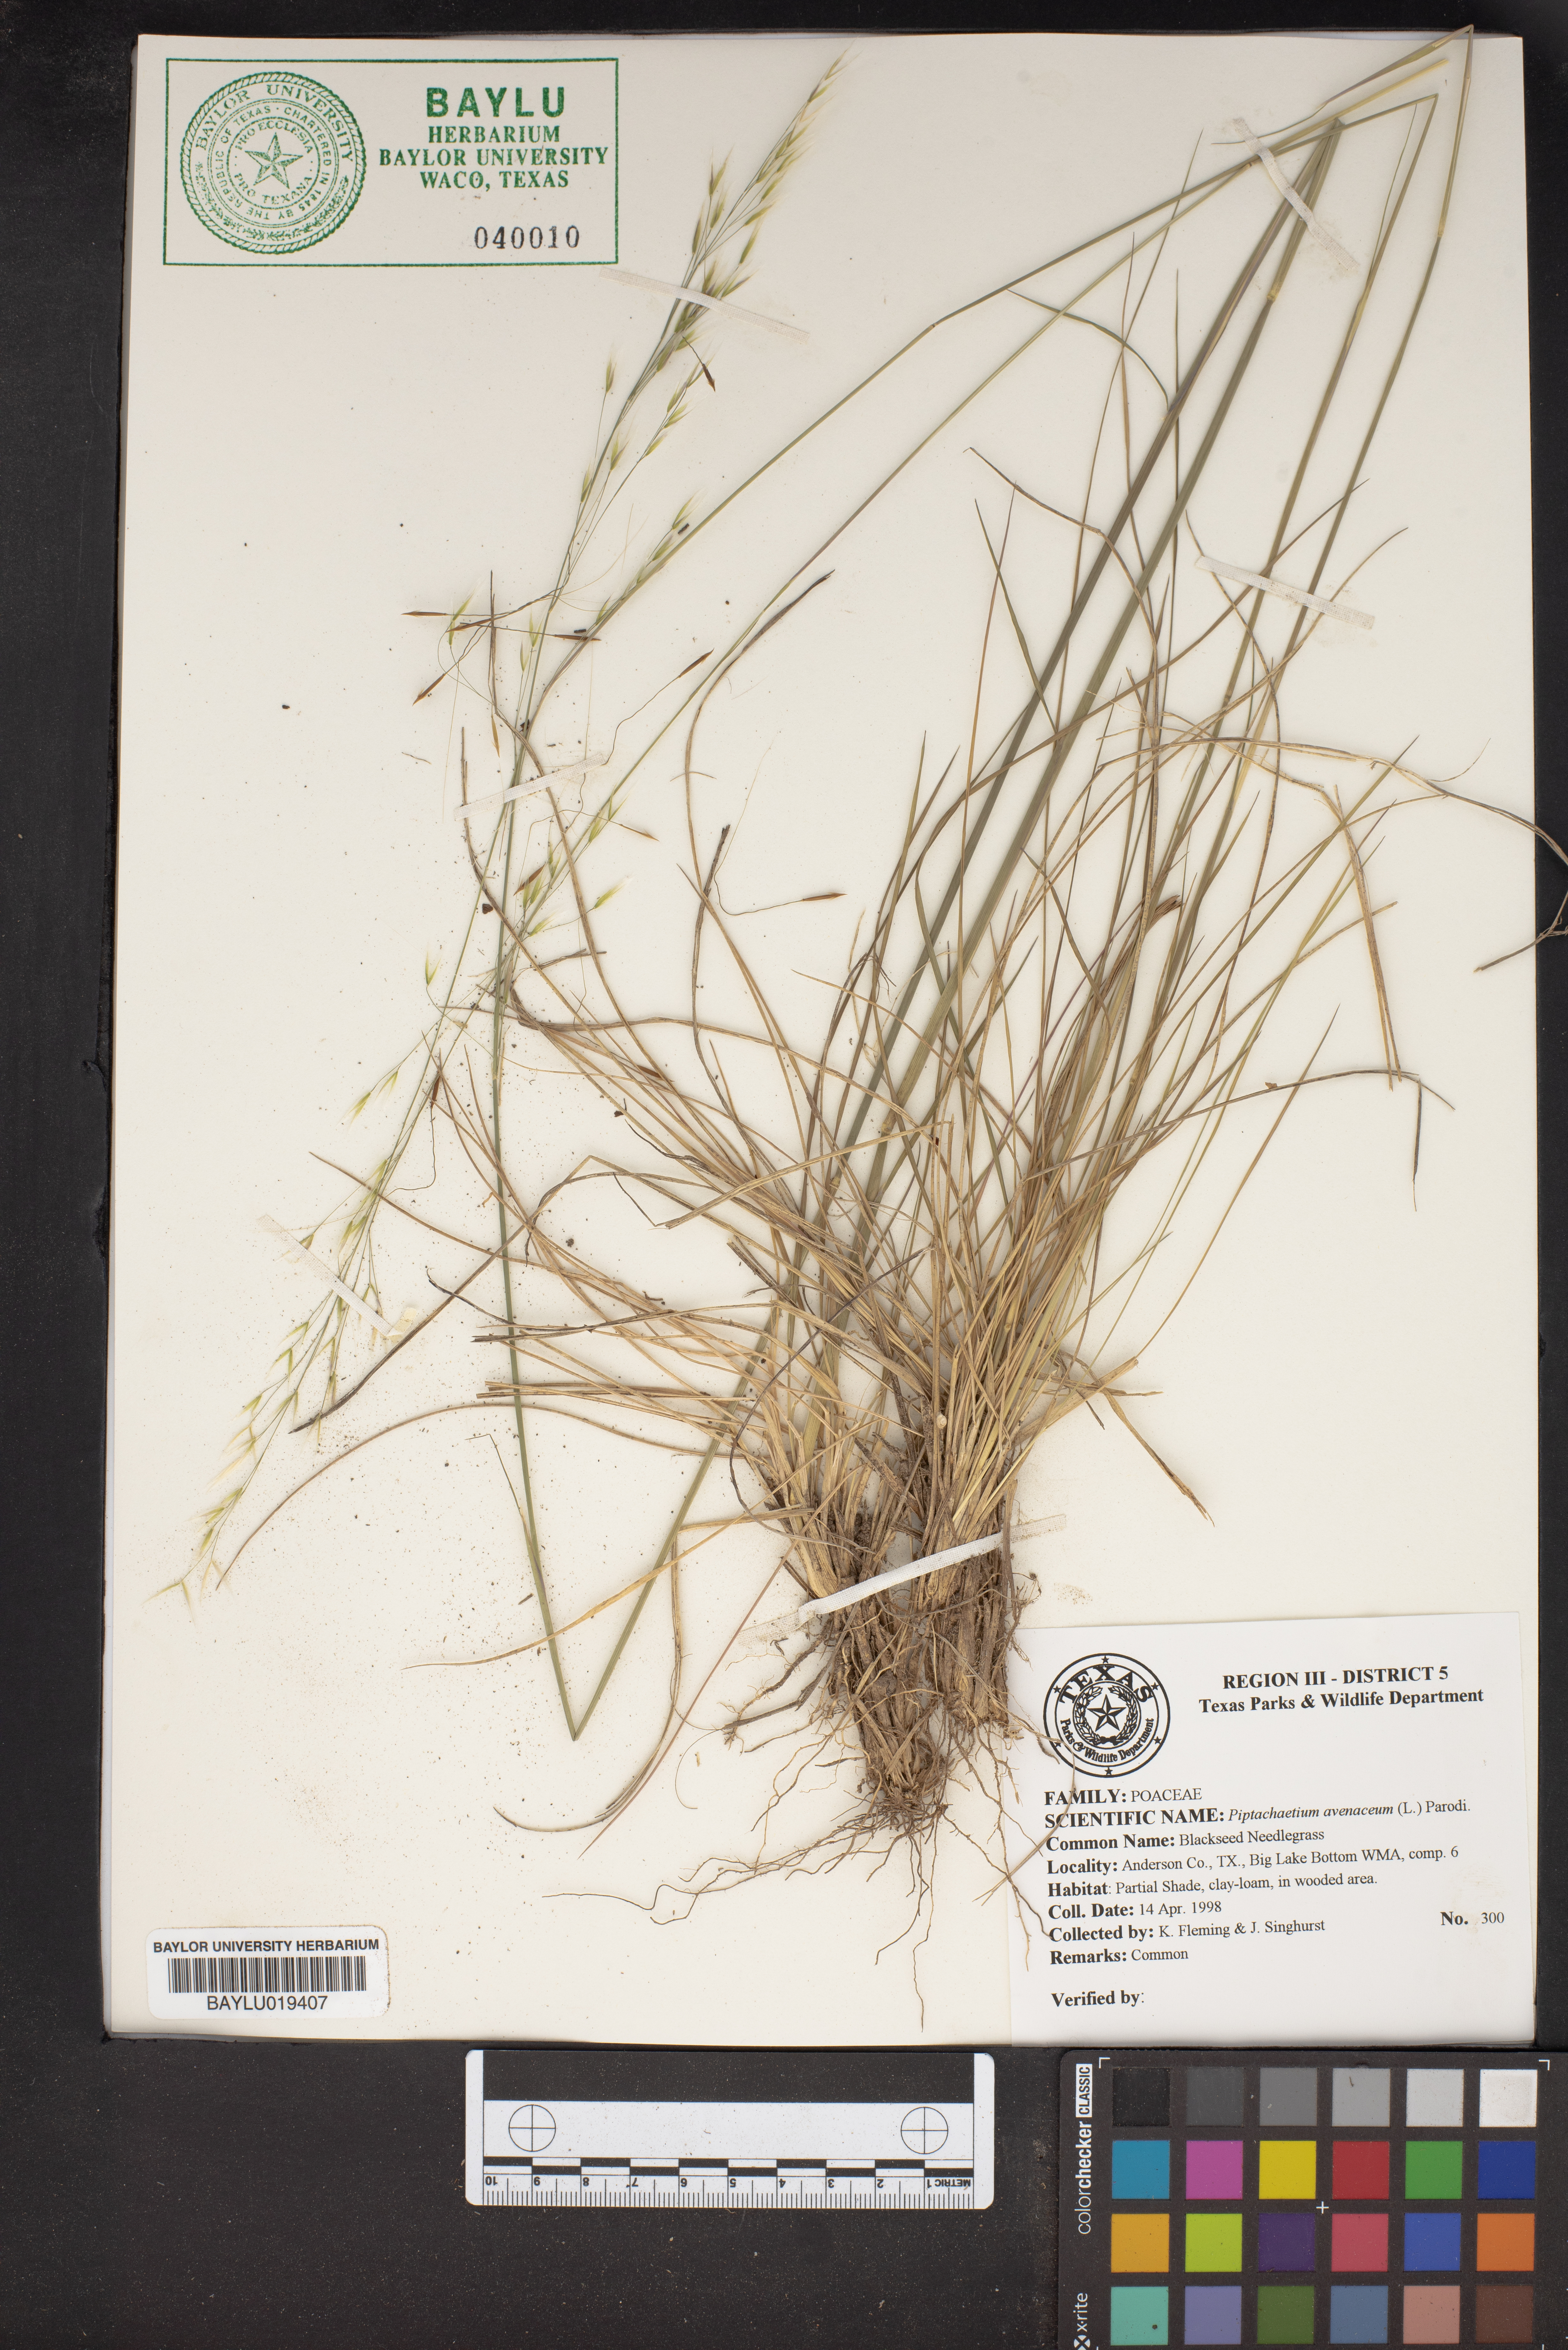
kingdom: Plantae
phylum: Tracheophyta
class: Liliopsida
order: Poales
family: Poaceae
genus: Piptochaetium
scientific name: Piptochaetium avenaceum
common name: Black bunchgrass
